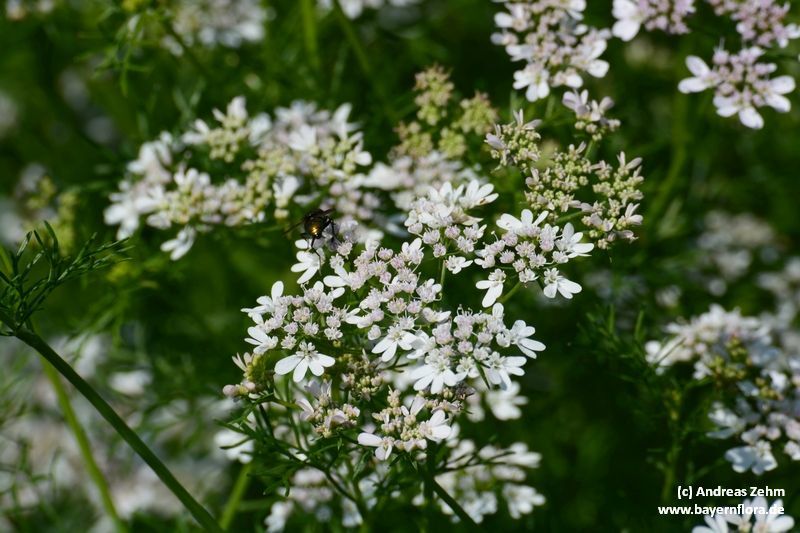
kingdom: Plantae
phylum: Tracheophyta
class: Magnoliopsida
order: Apiales
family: Apiaceae
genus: Coriandrum
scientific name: Coriandrum sativum
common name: Coriander
